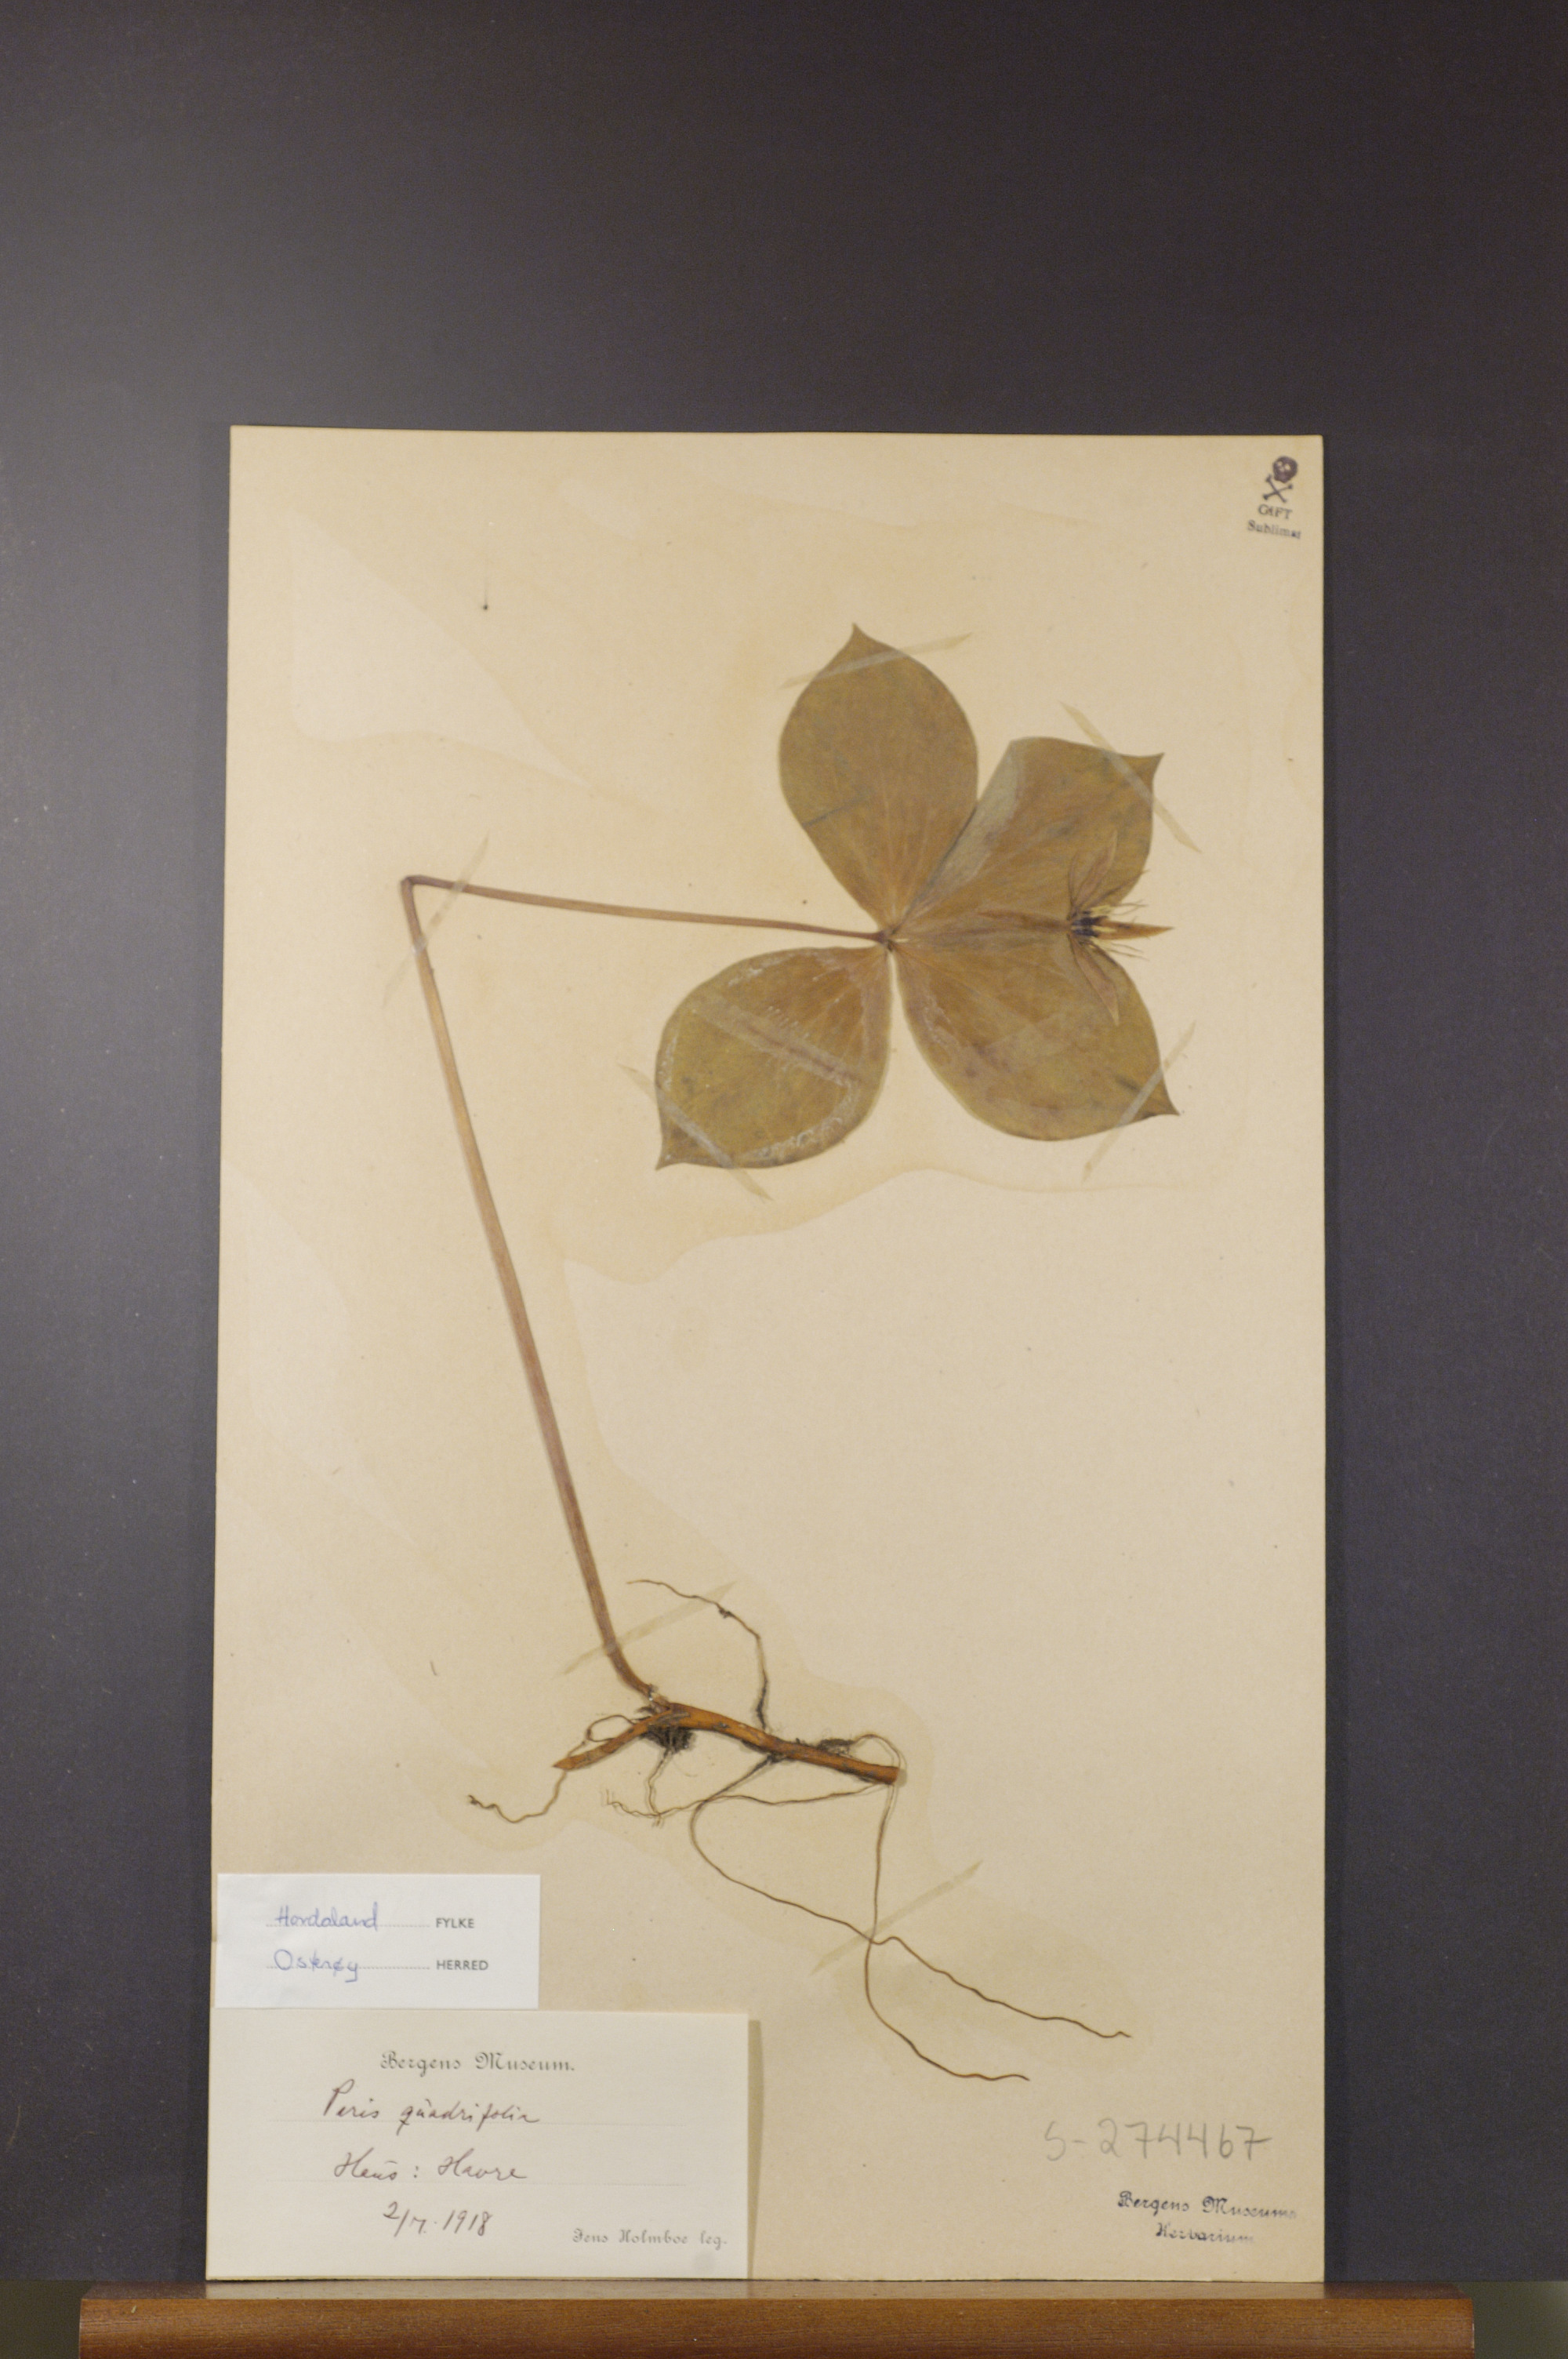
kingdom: Plantae
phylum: Tracheophyta
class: Liliopsida
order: Liliales
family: Melanthiaceae
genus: Paris
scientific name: Paris quadrifolia
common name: Herb-paris
